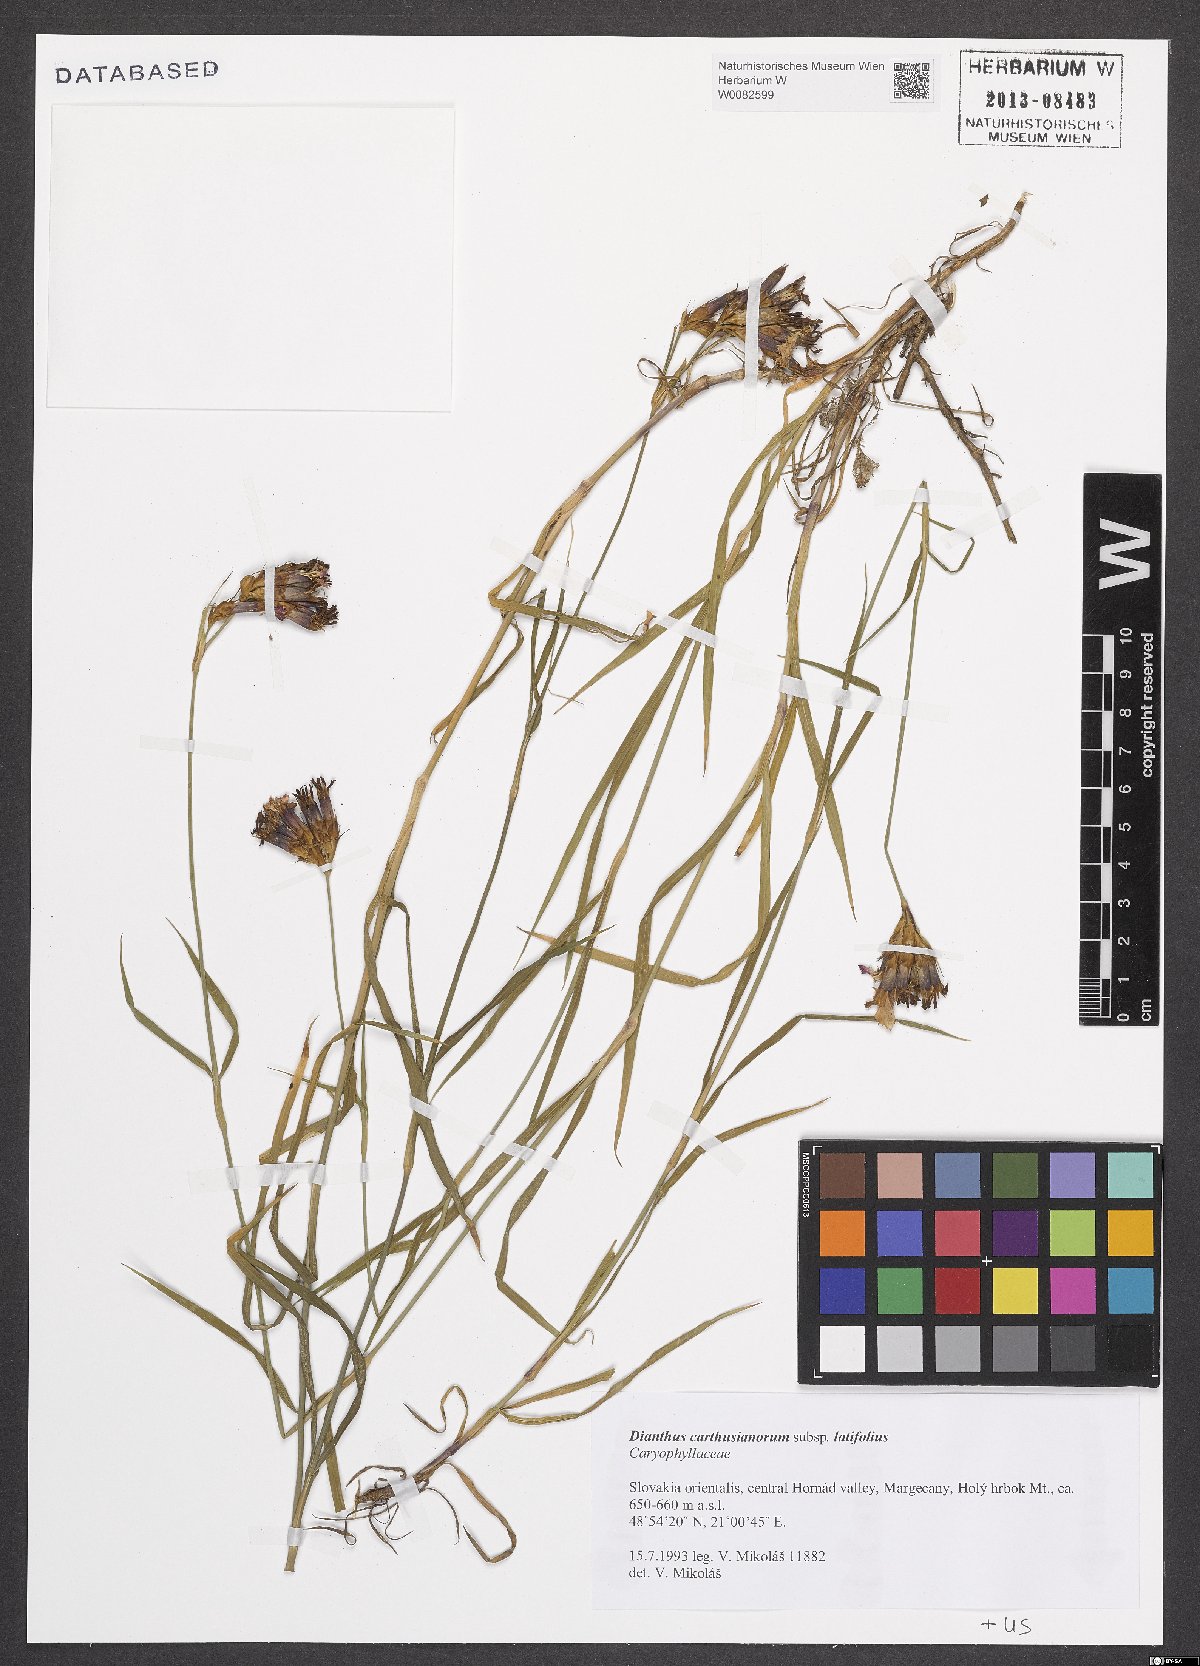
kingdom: Plantae
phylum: Tracheophyta
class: Magnoliopsida
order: Caryophyllales
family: Caryophyllaceae
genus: Dianthus
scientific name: Dianthus carthusianorum
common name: Carthusian pink
